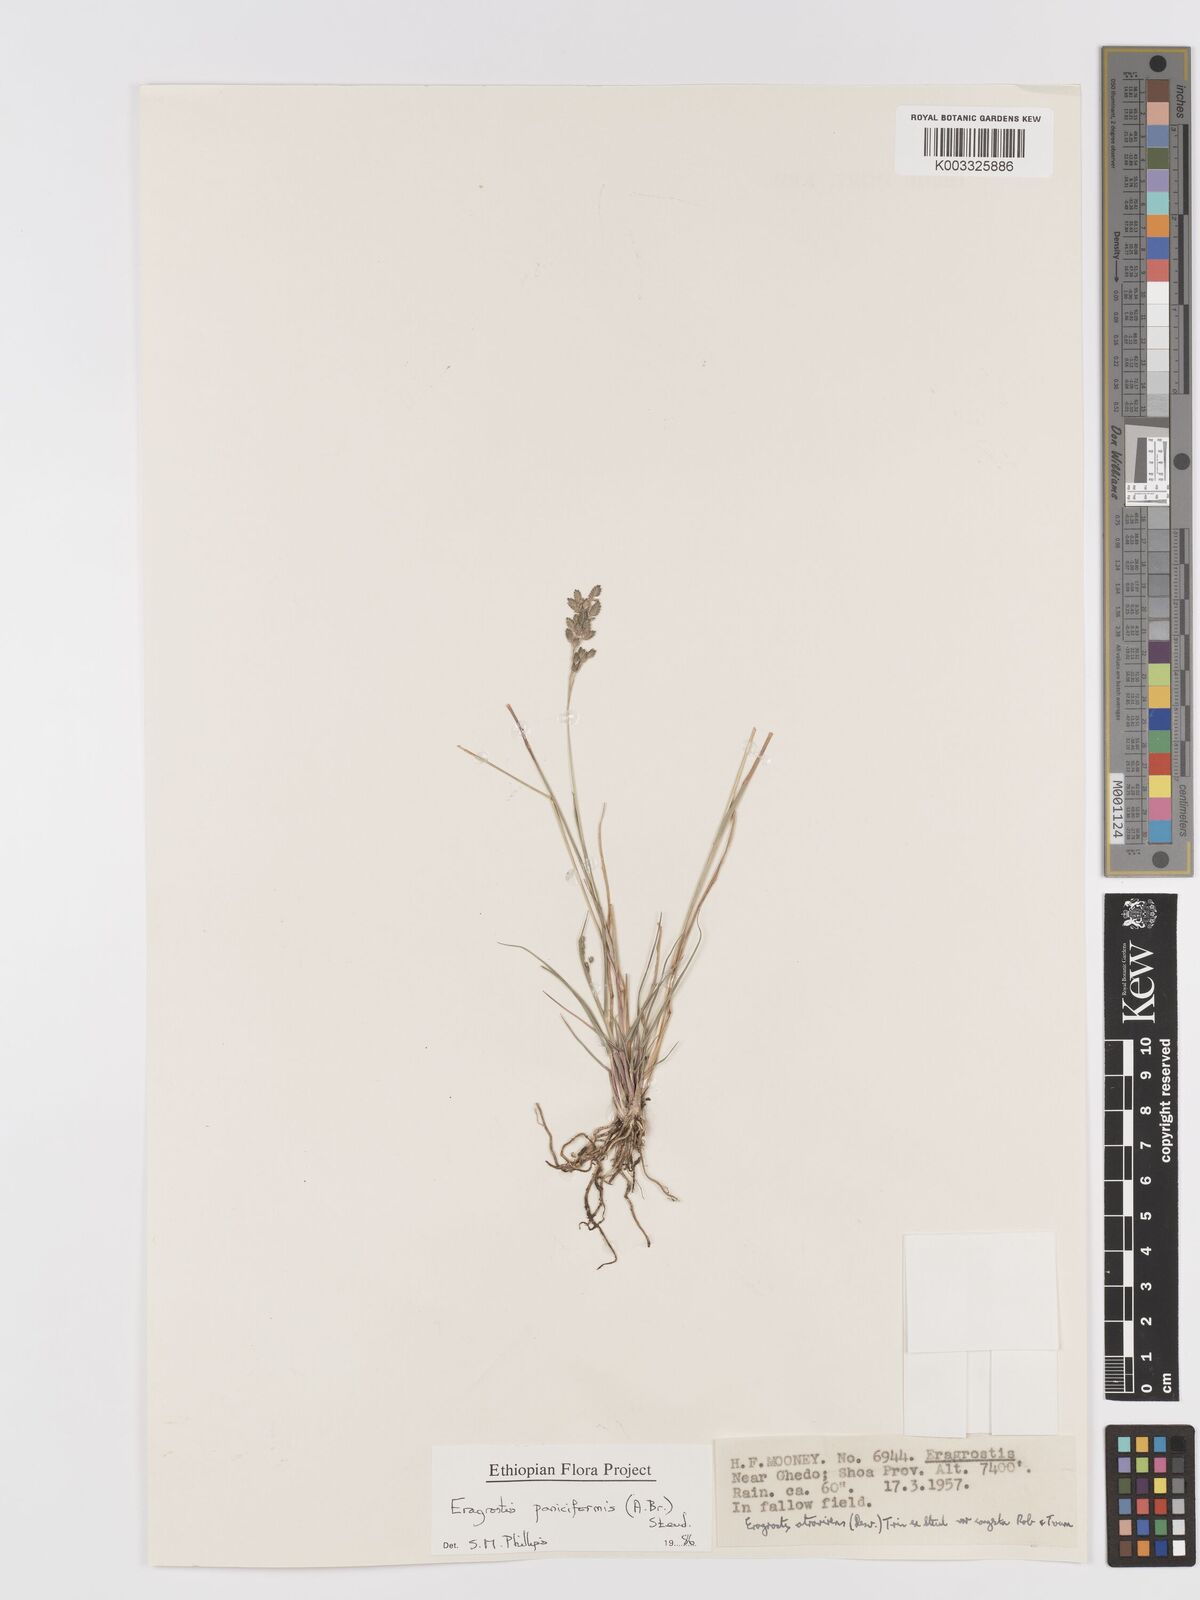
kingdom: Plantae
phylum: Tracheophyta
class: Liliopsida
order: Poales
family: Poaceae
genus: Eragrostis
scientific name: Eragrostis paniciformis
